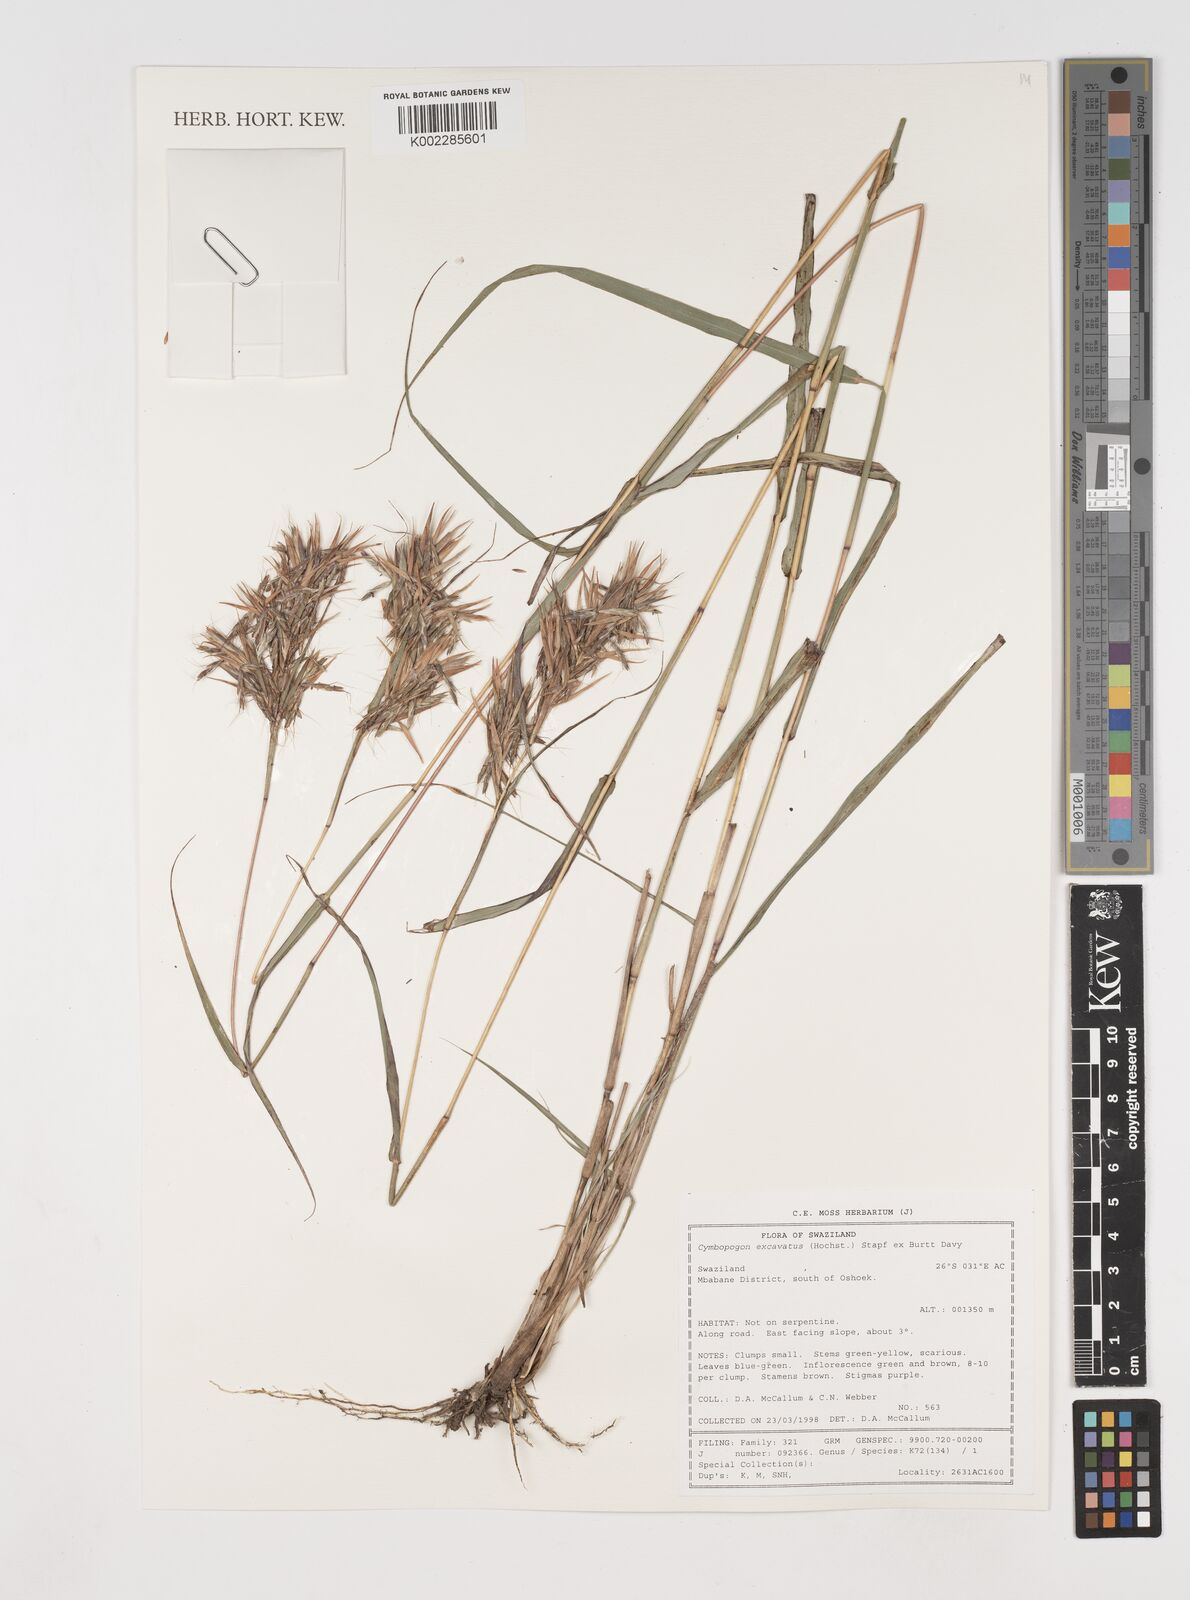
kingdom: Plantae
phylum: Tracheophyta
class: Liliopsida
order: Poales
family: Poaceae
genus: Cymbopogon
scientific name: Cymbopogon caesius
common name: Kachi grass
